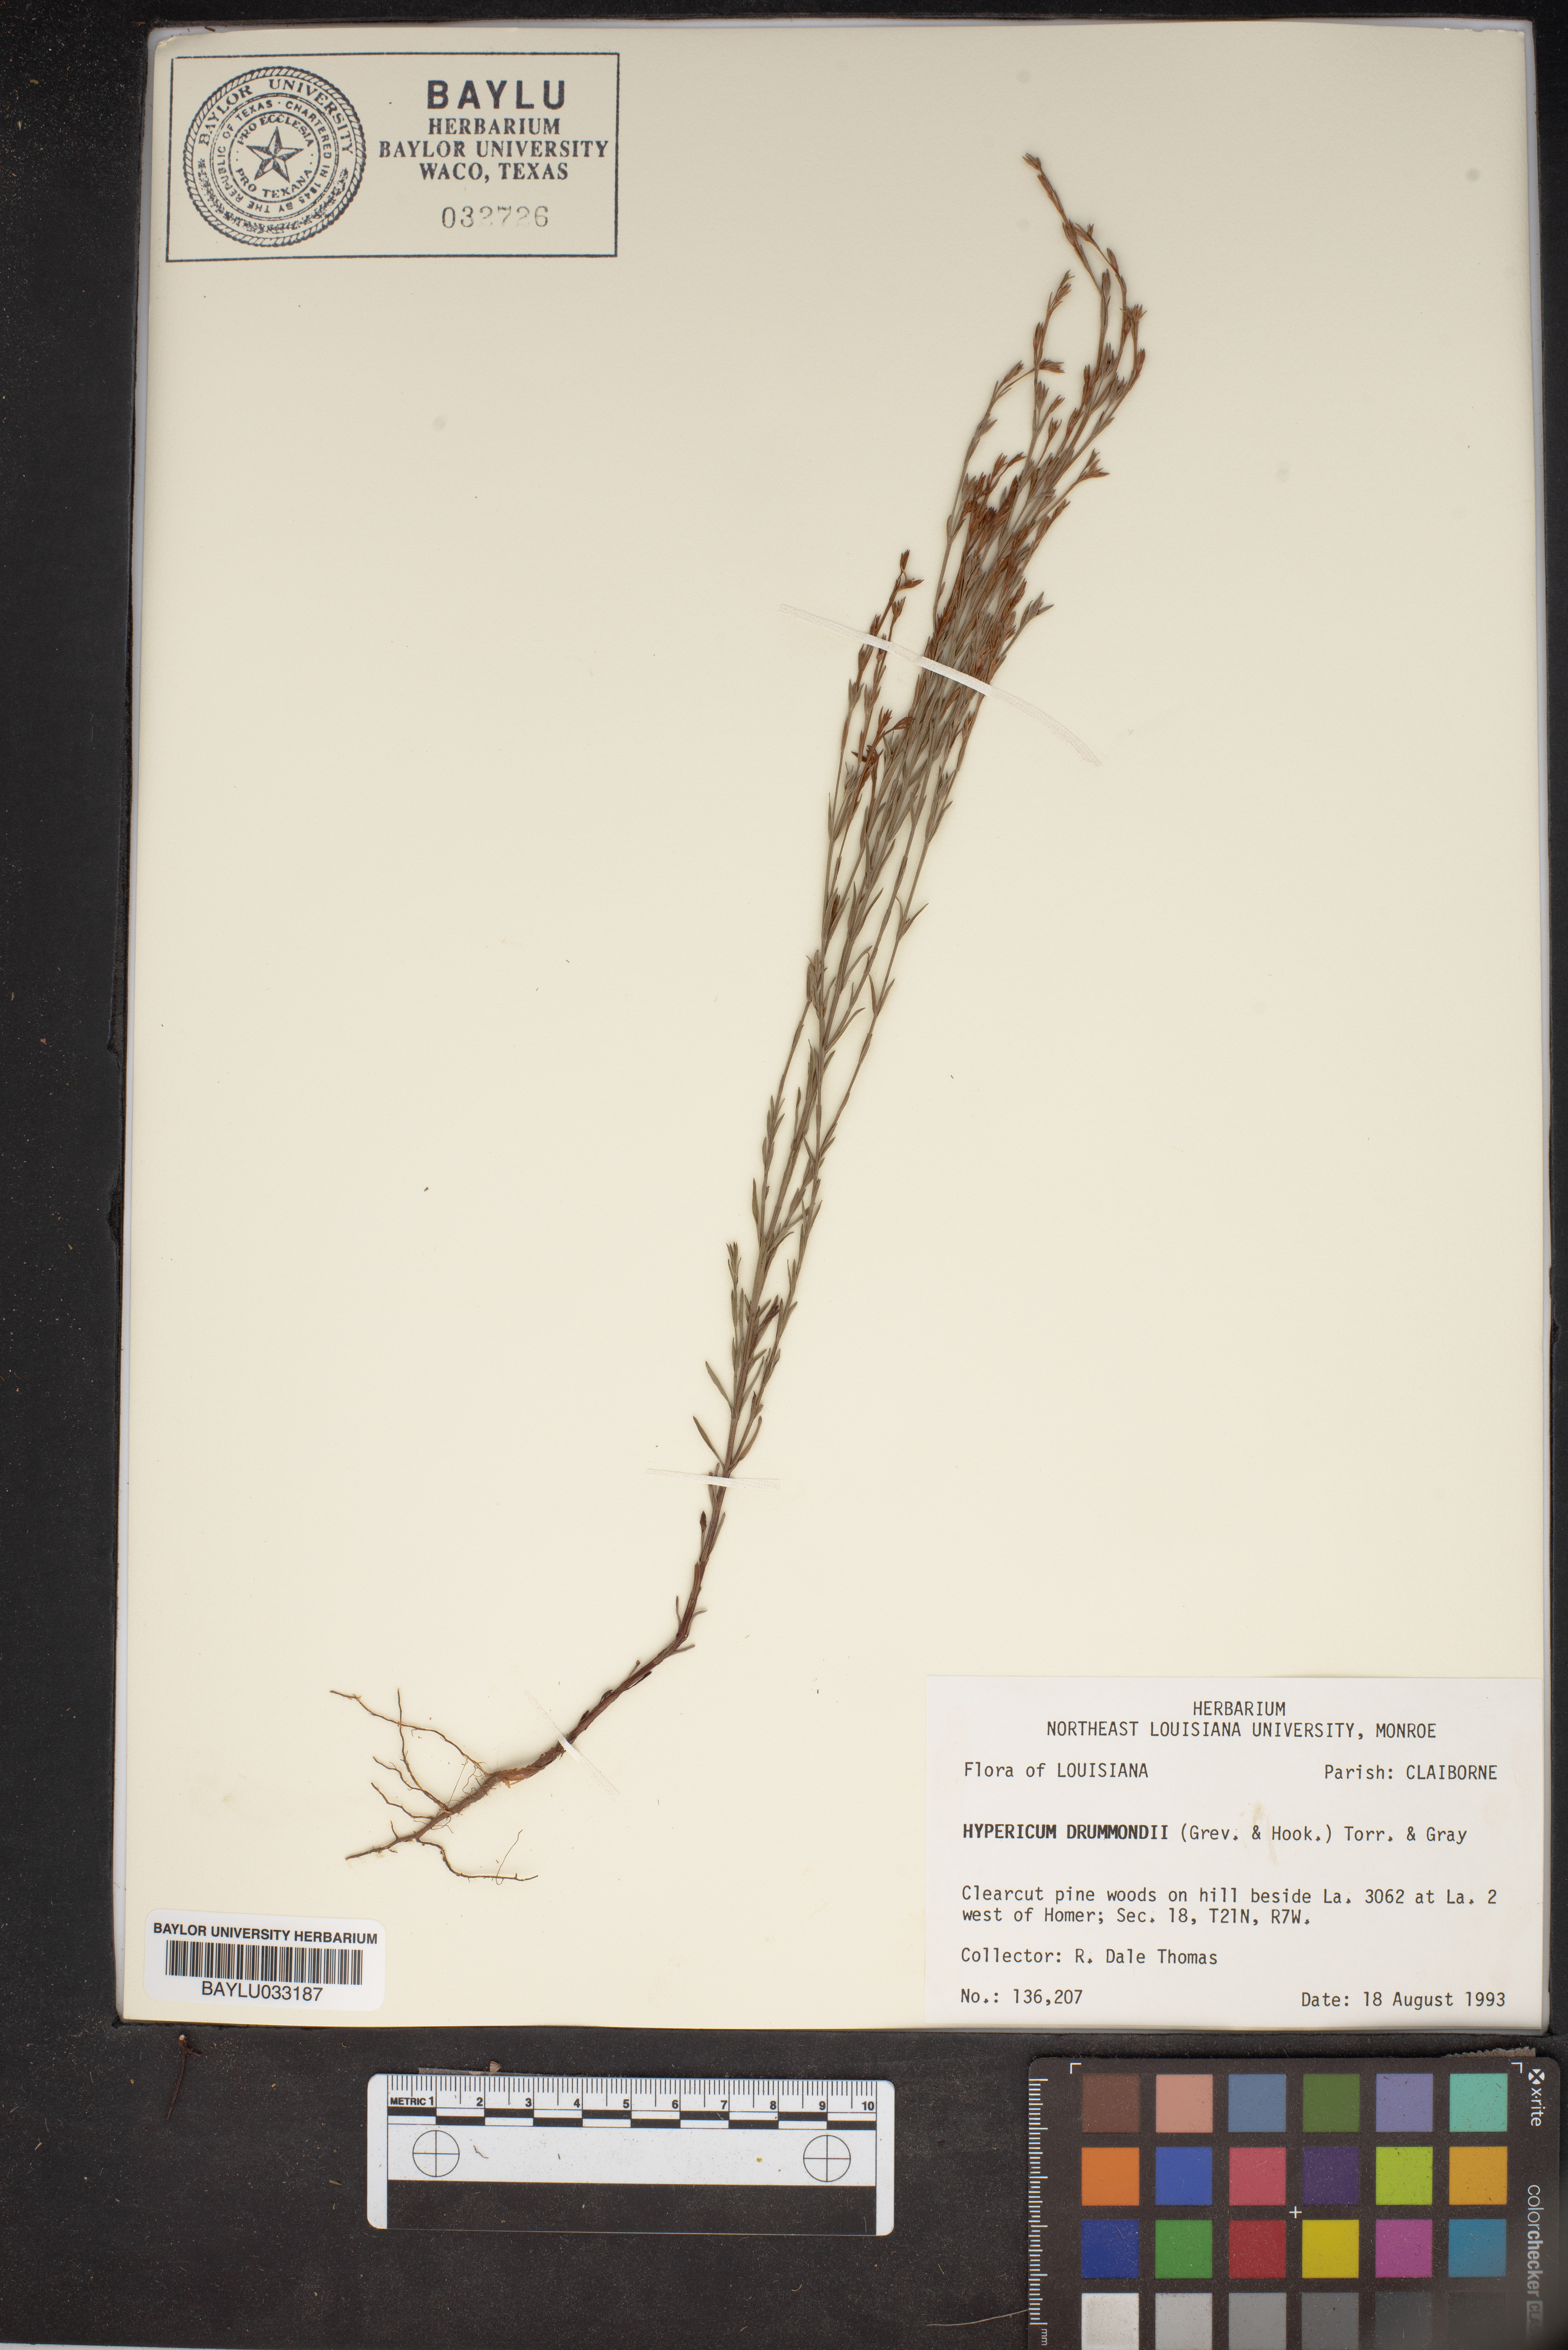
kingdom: Plantae
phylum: Tracheophyta
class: Magnoliopsida
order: Malpighiales
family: Hypericaceae
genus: Hypericum
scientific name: Hypericum drummondii
